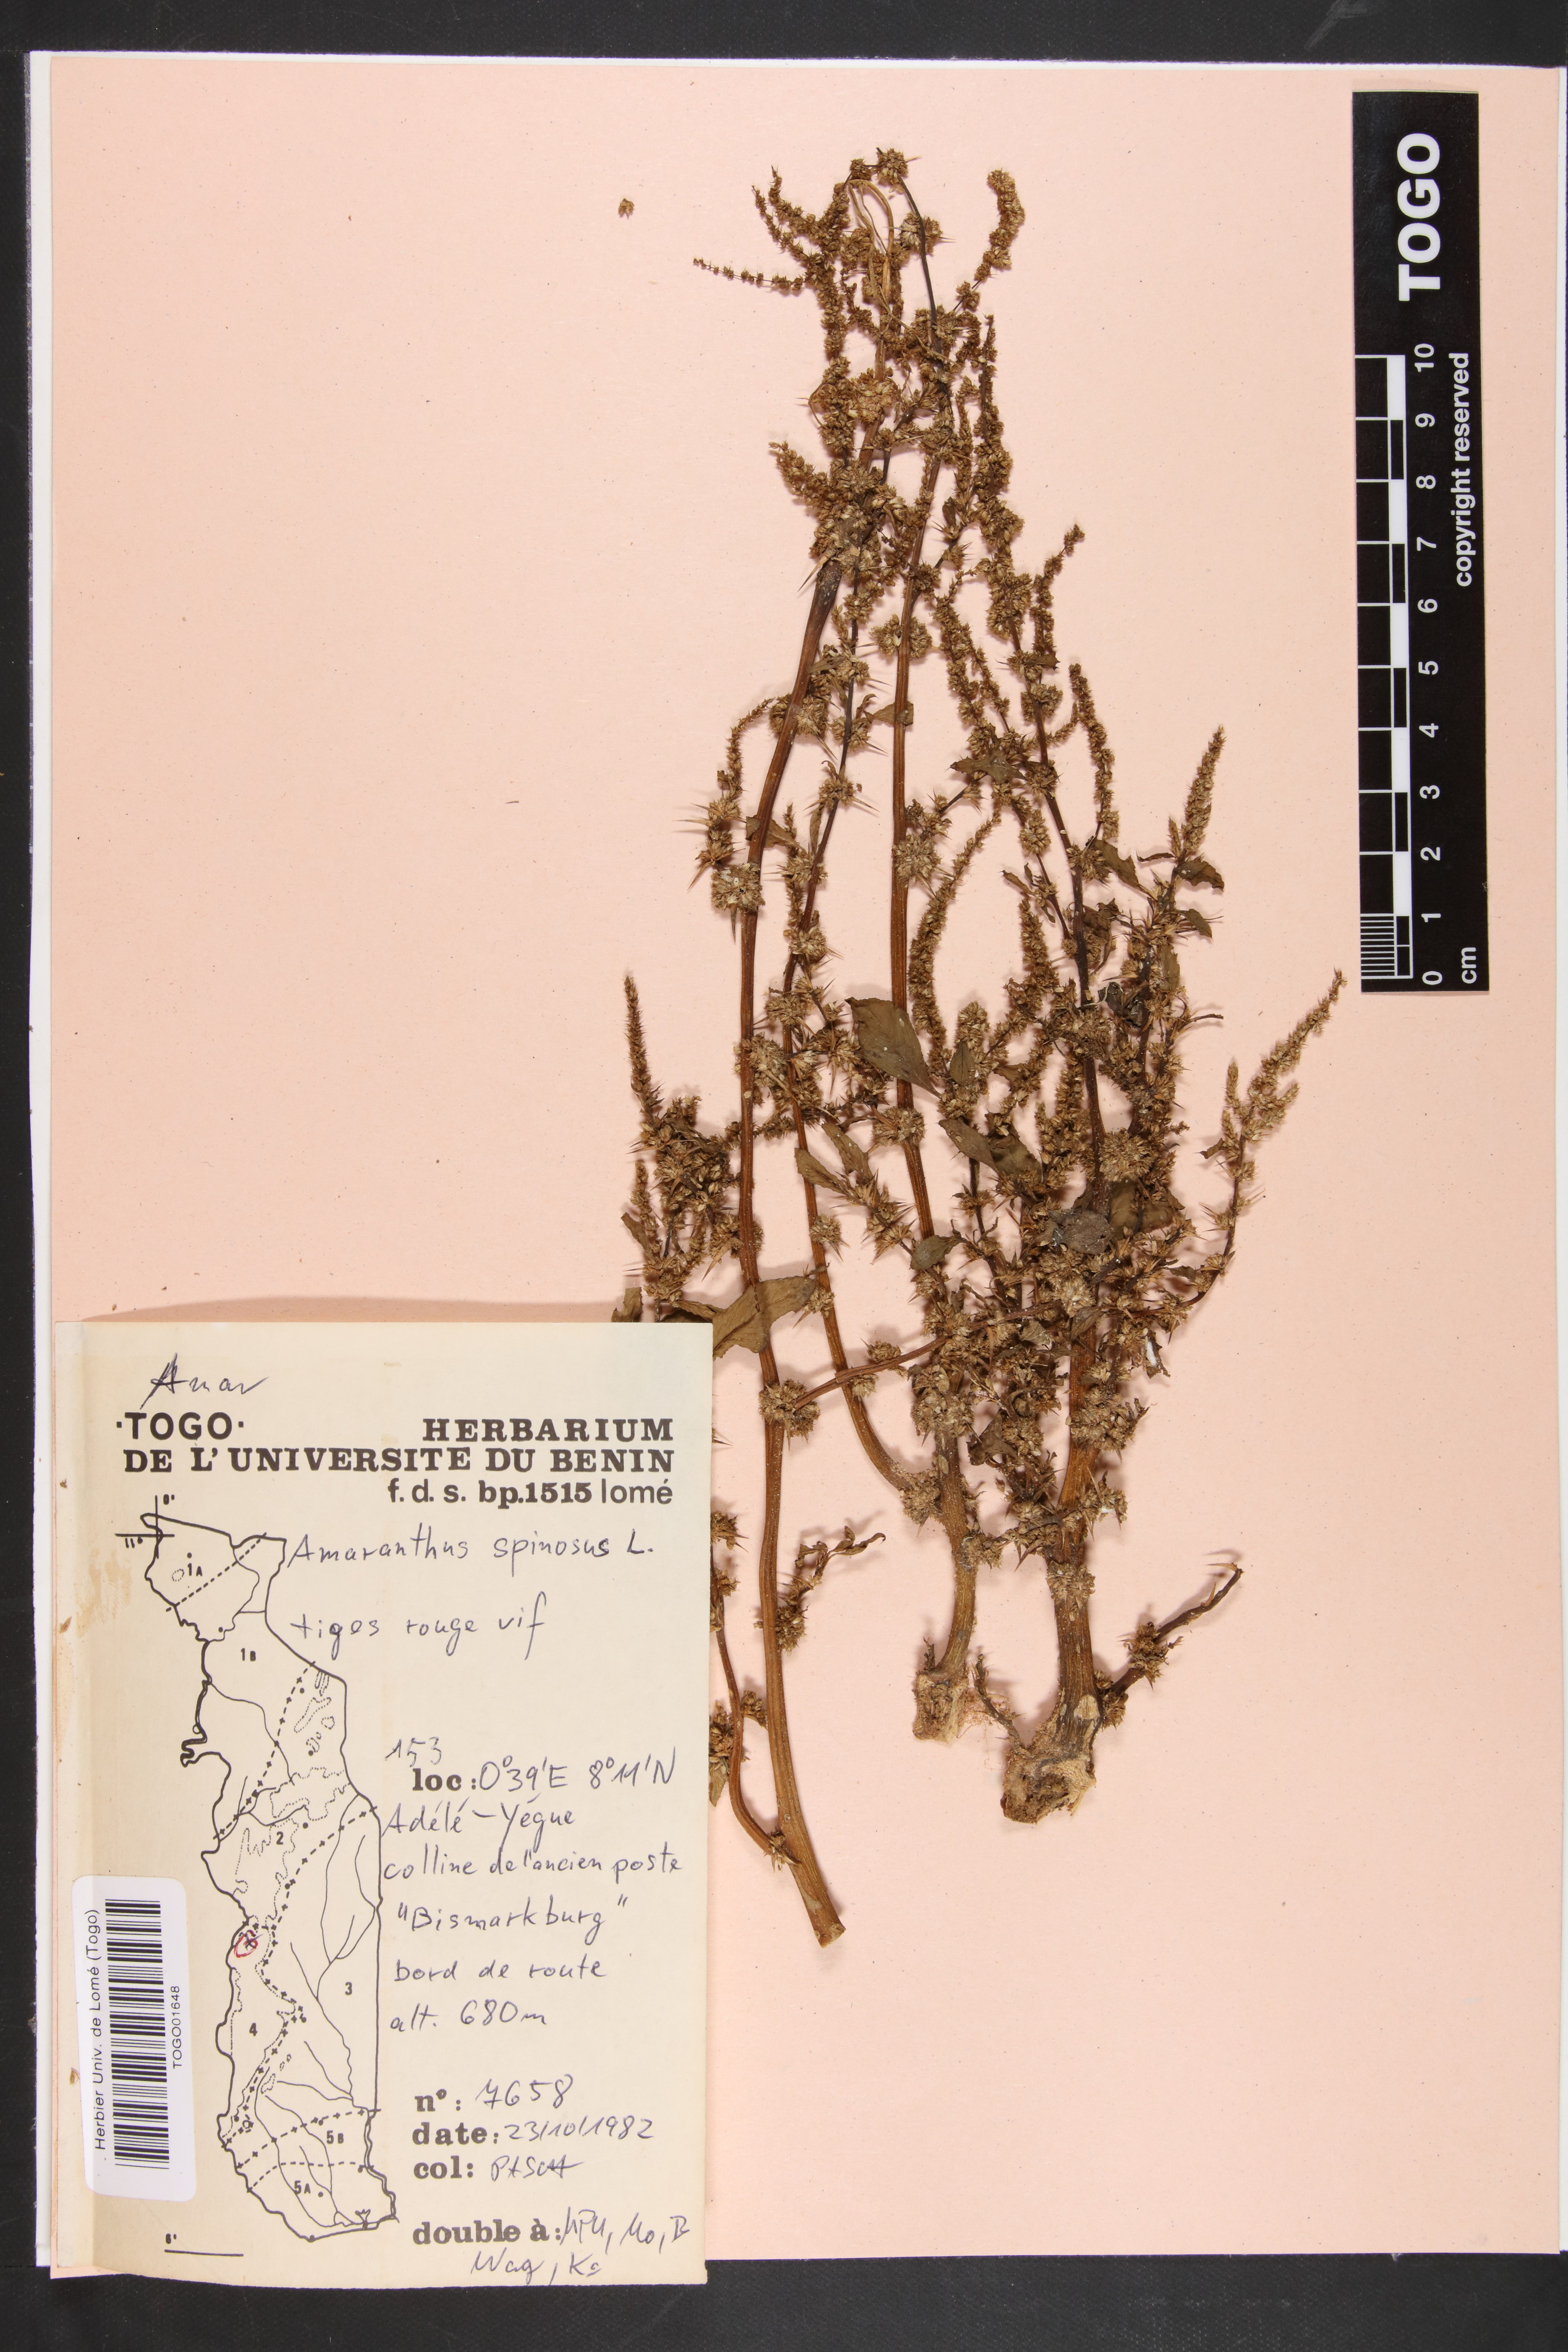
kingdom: Plantae
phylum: Tracheophyta
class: Magnoliopsida
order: Caryophyllales
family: Amaranthaceae
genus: Amaranthus
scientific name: Amaranthus spinosus
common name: Spiny amaranth
